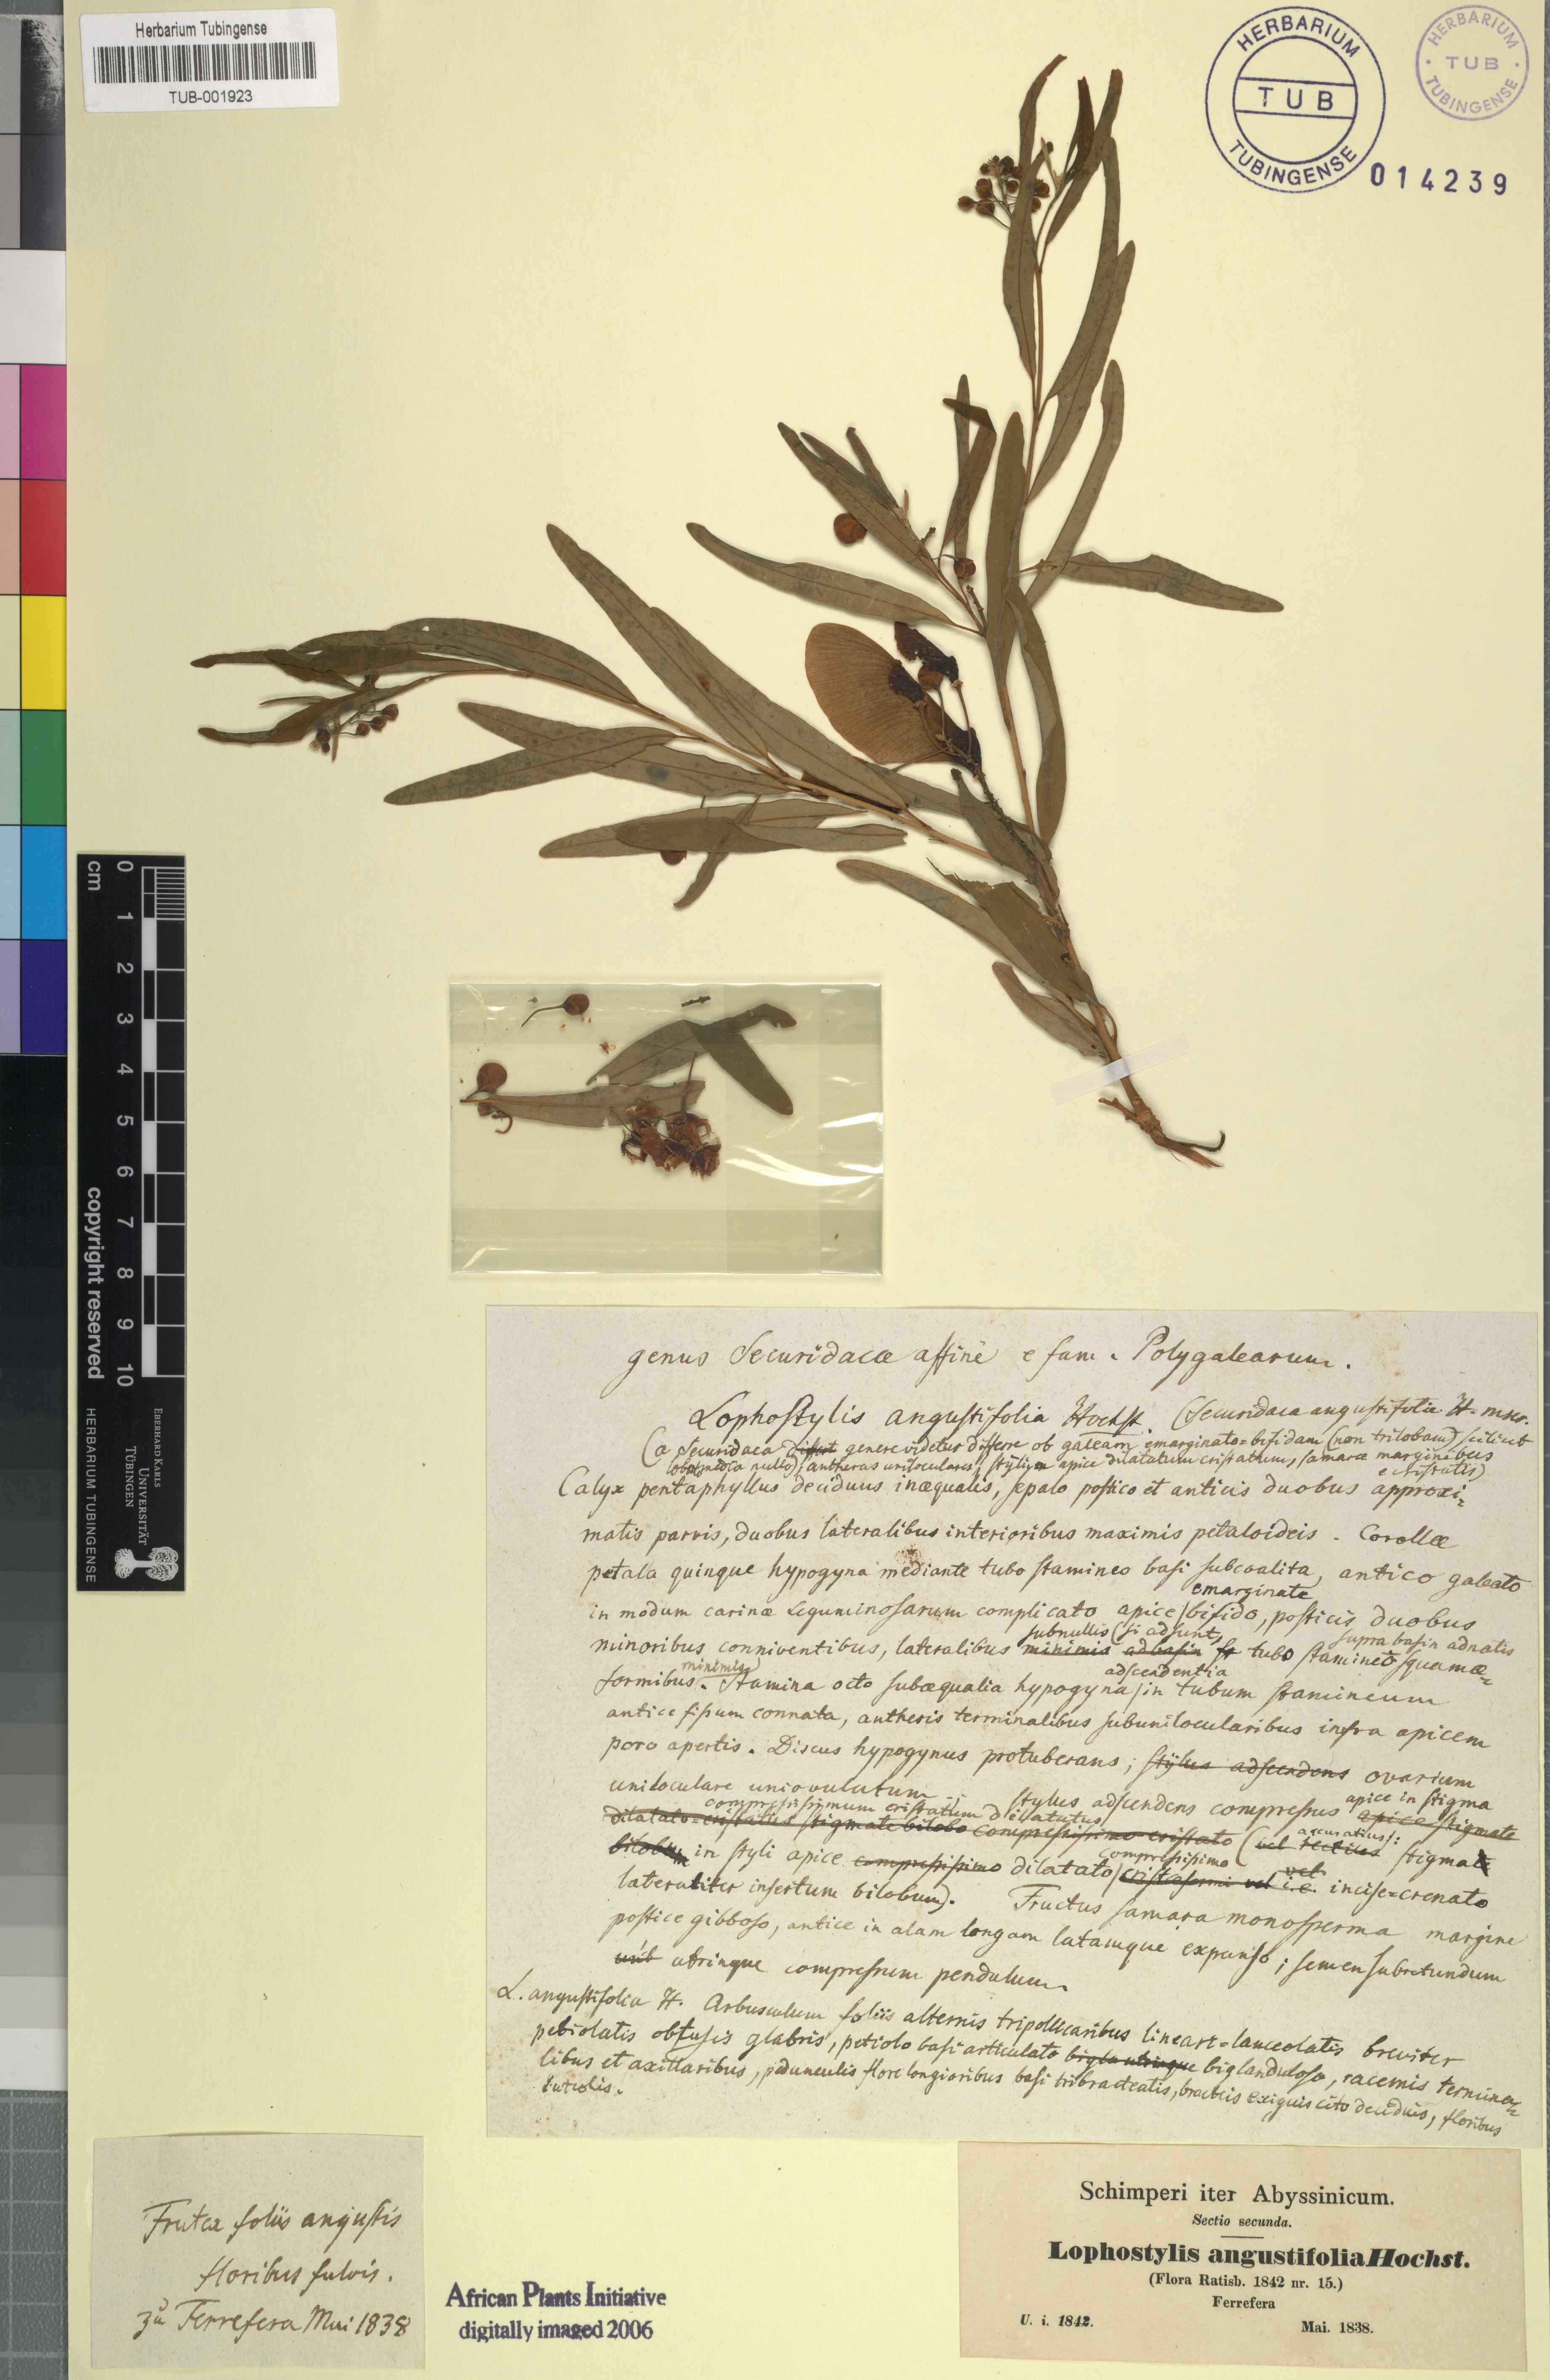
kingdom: Plantae
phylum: Tracheophyta
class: Magnoliopsida
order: Fabales
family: Polygalaceae
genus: Securidaca
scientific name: Securidaca longipedunculata
